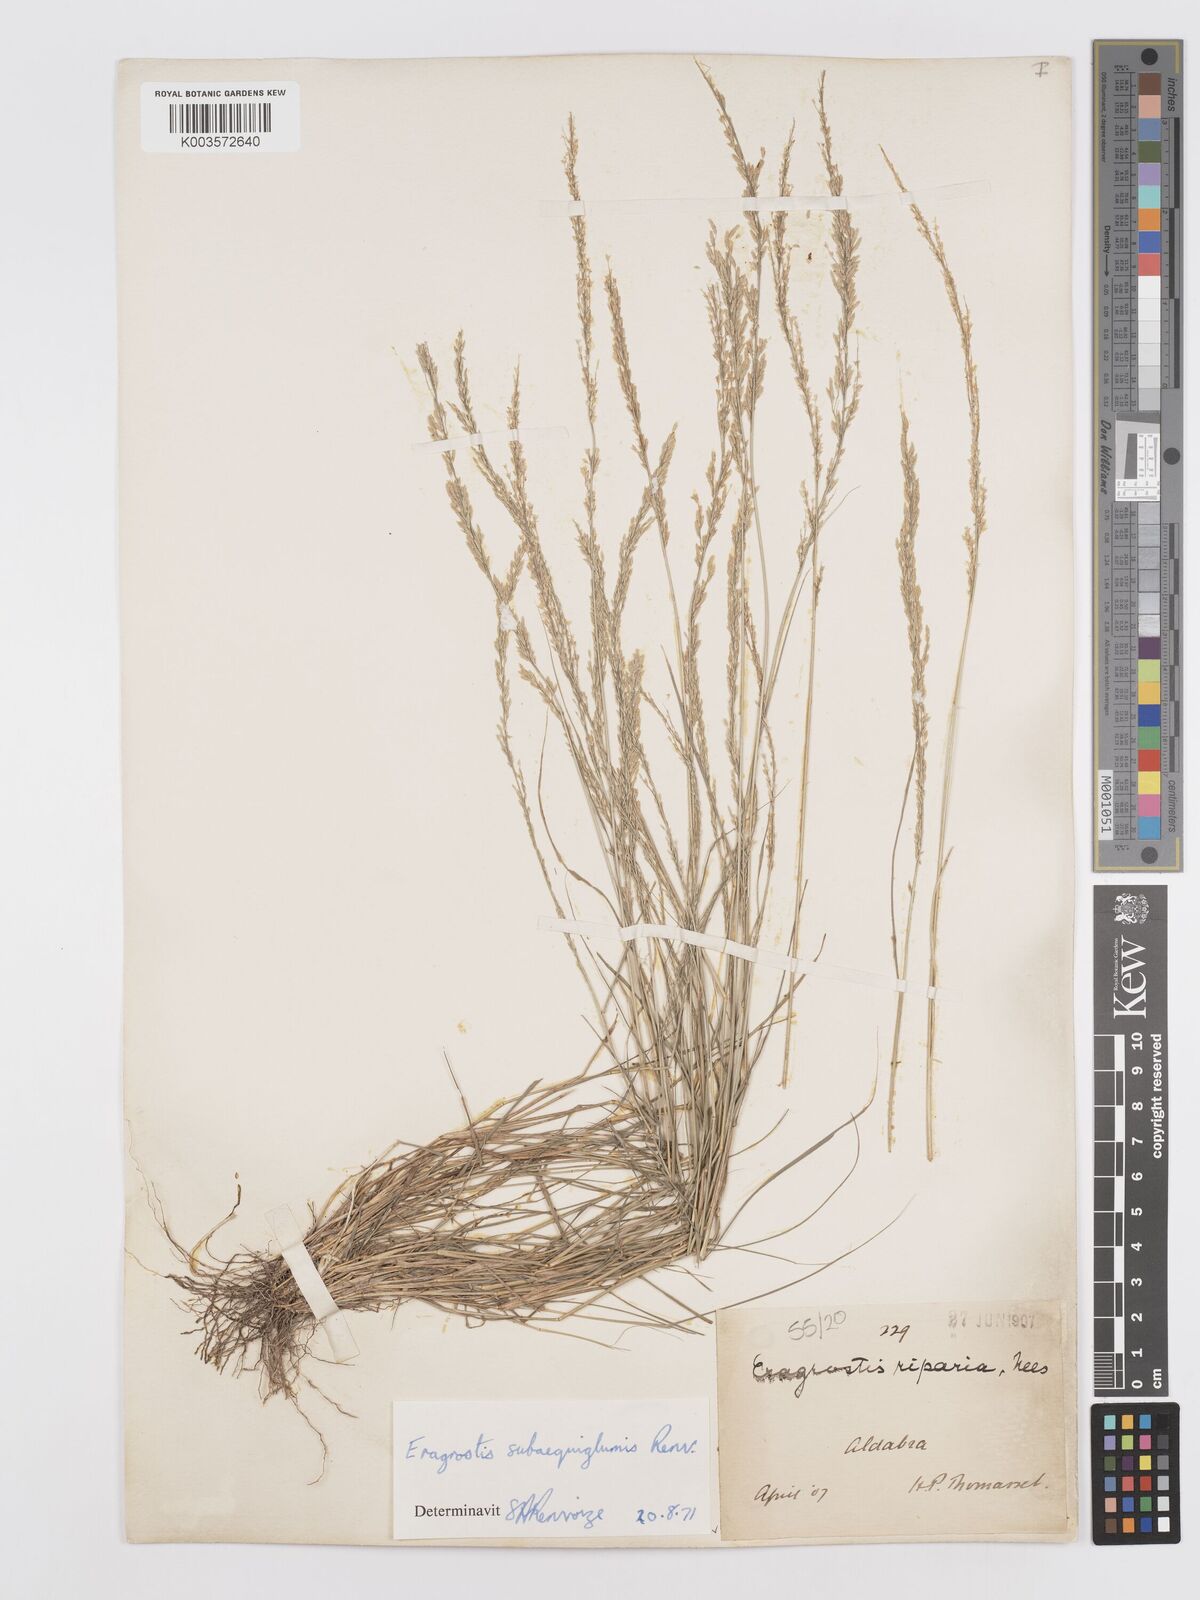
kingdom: Plantae
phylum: Tracheophyta
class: Liliopsida
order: Poales
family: Poaceae
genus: Eragrostis
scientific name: Eragrostis subaequiglumis
